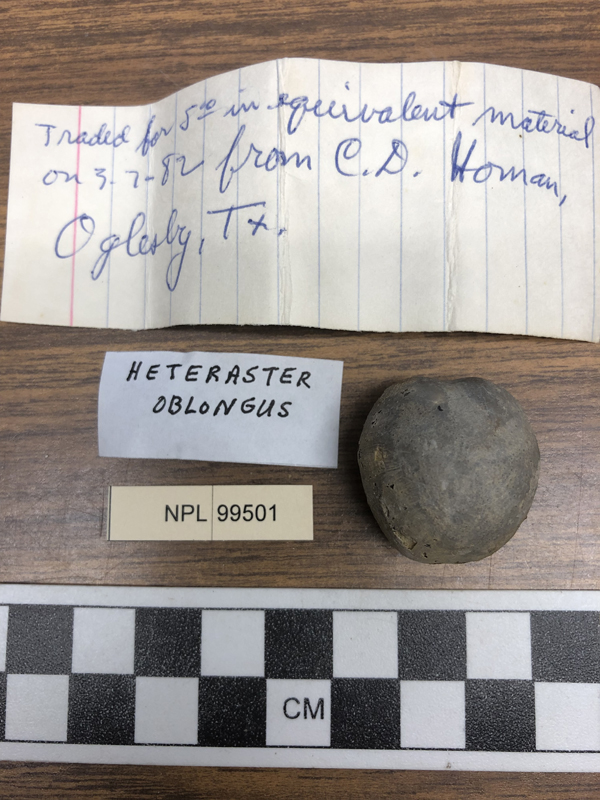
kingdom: Animalia
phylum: Echinodermata
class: Echinoidea
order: Spatangoida
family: Toxasteridae
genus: Heteraster
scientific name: Heteraster oblongus
